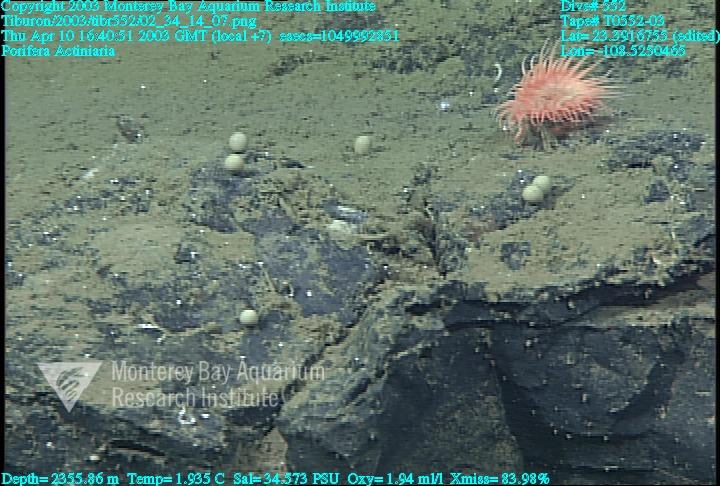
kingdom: Animalia
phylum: Porifera
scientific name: Porifera
